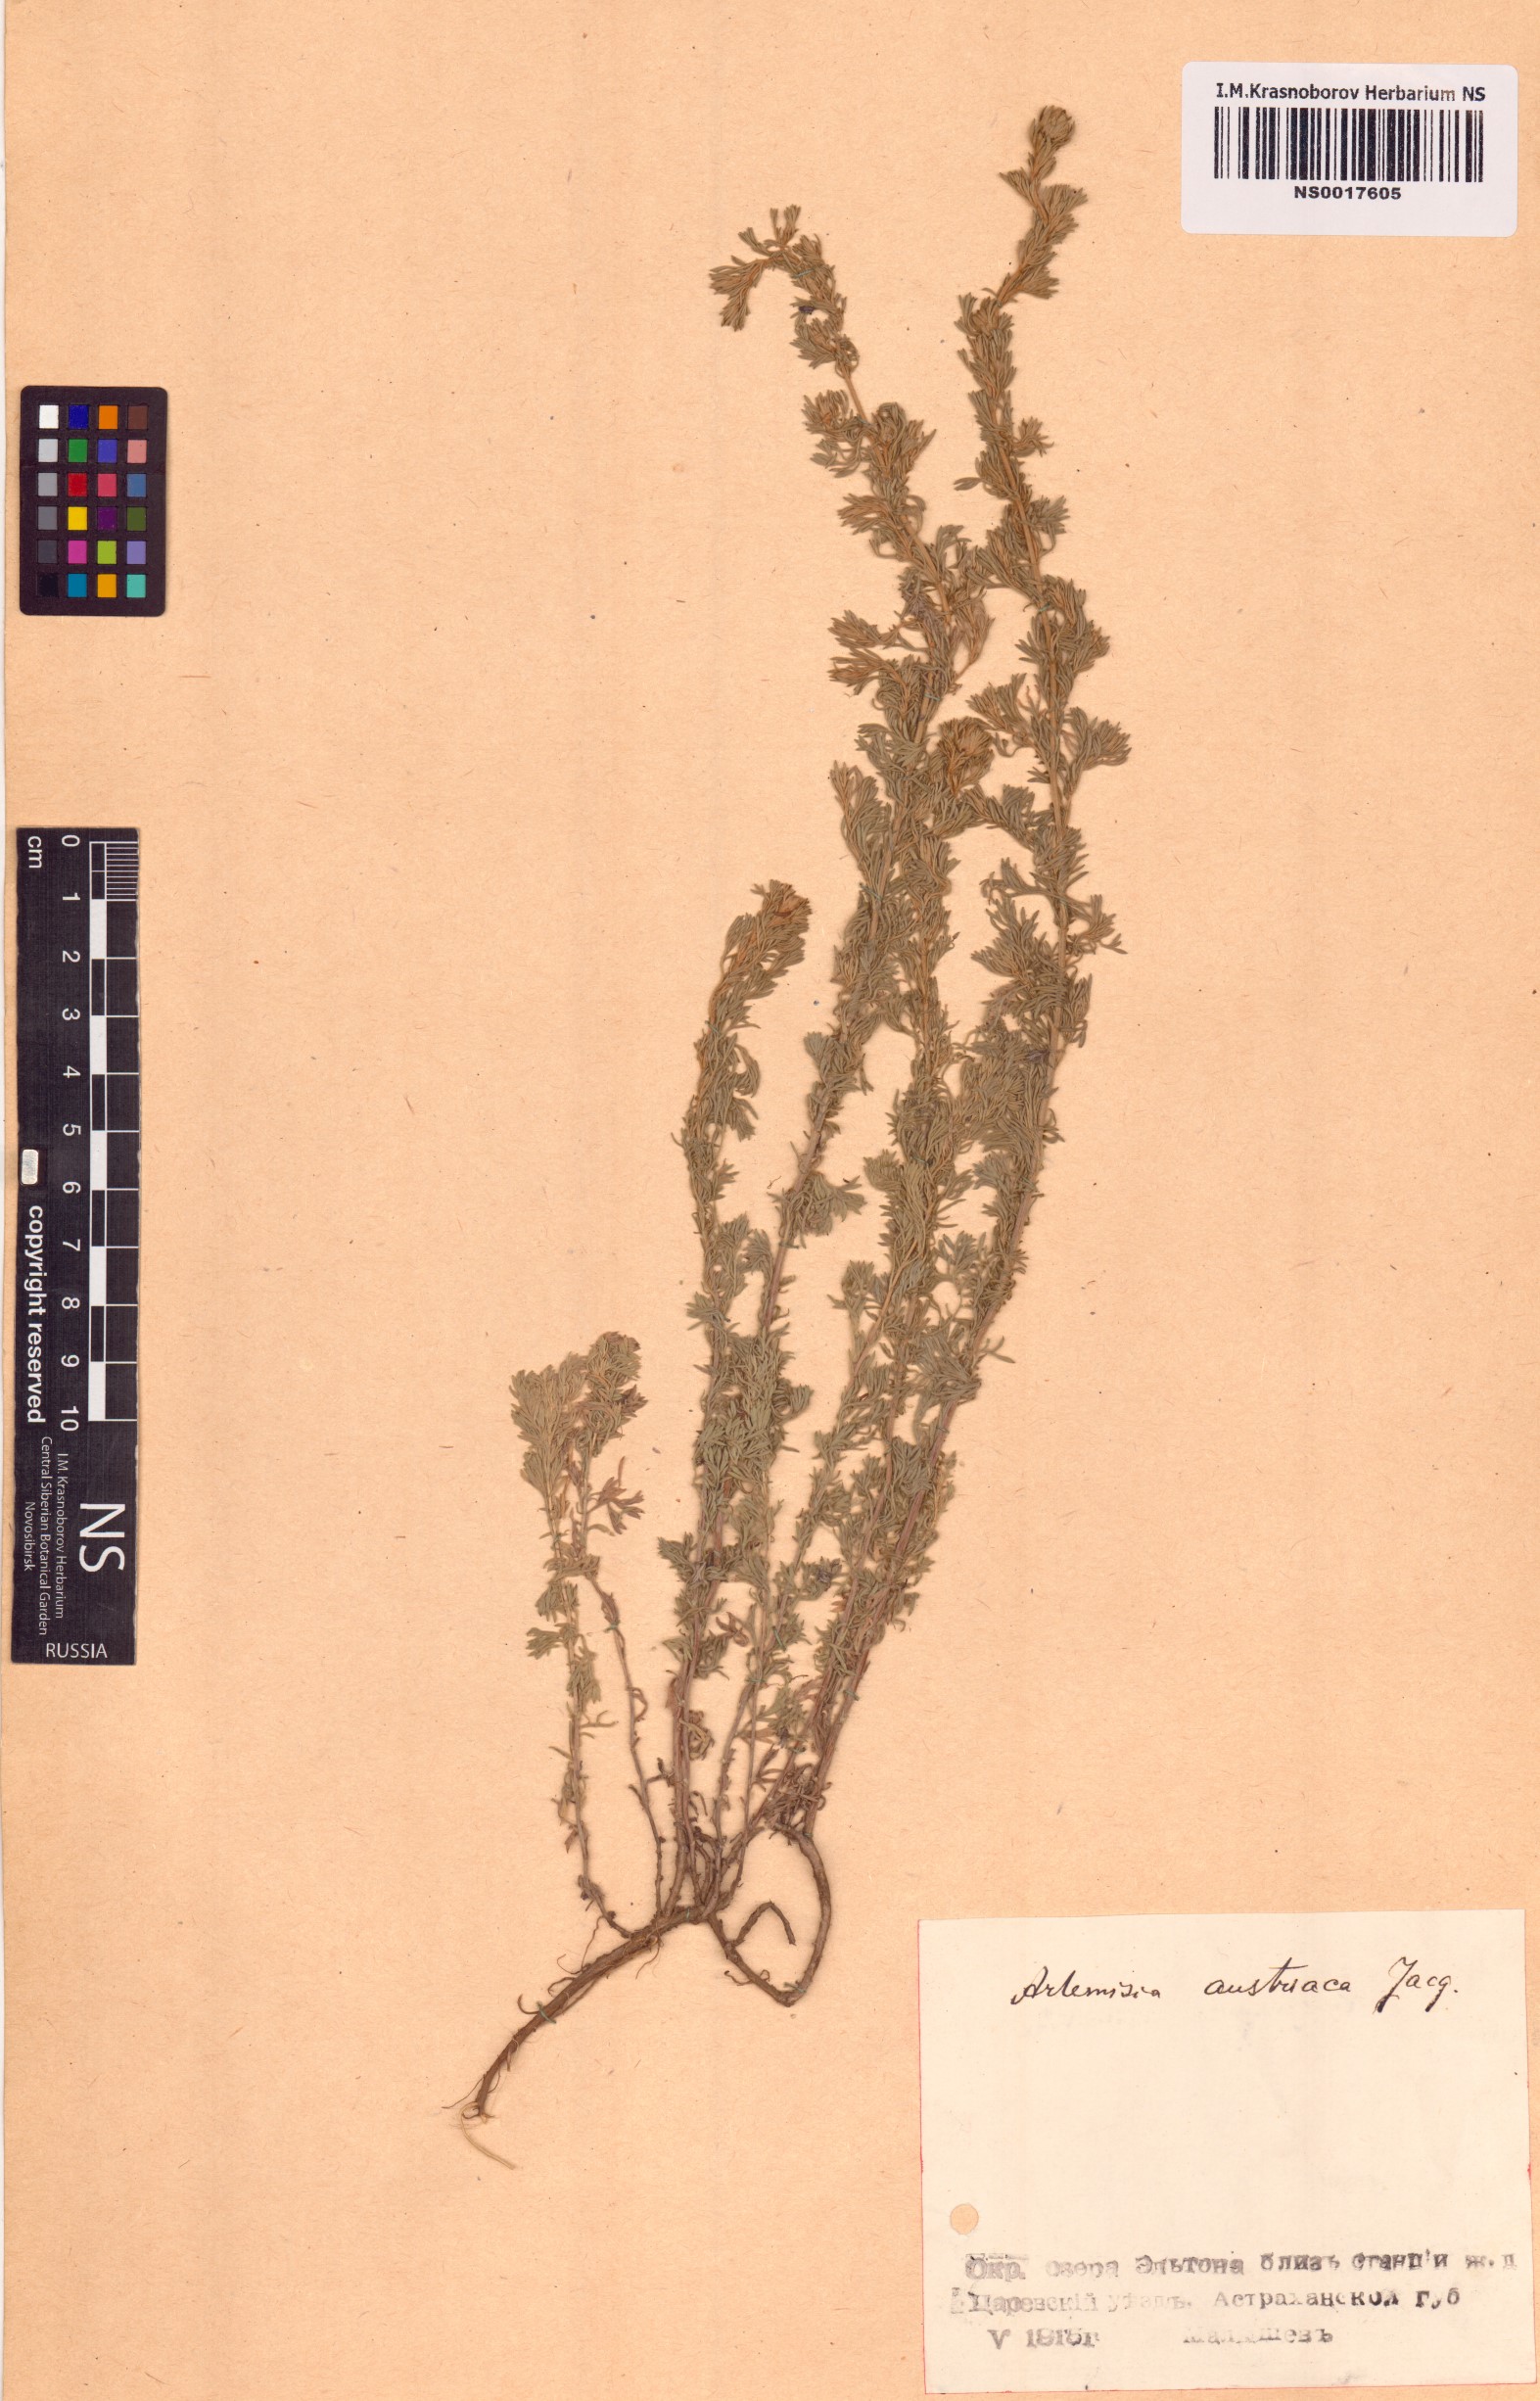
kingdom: Plantae
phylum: Tracheophyta
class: Magnoliopsida
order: Asterales
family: Asteraceae
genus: Artemisia
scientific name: Artemisia austriaca
